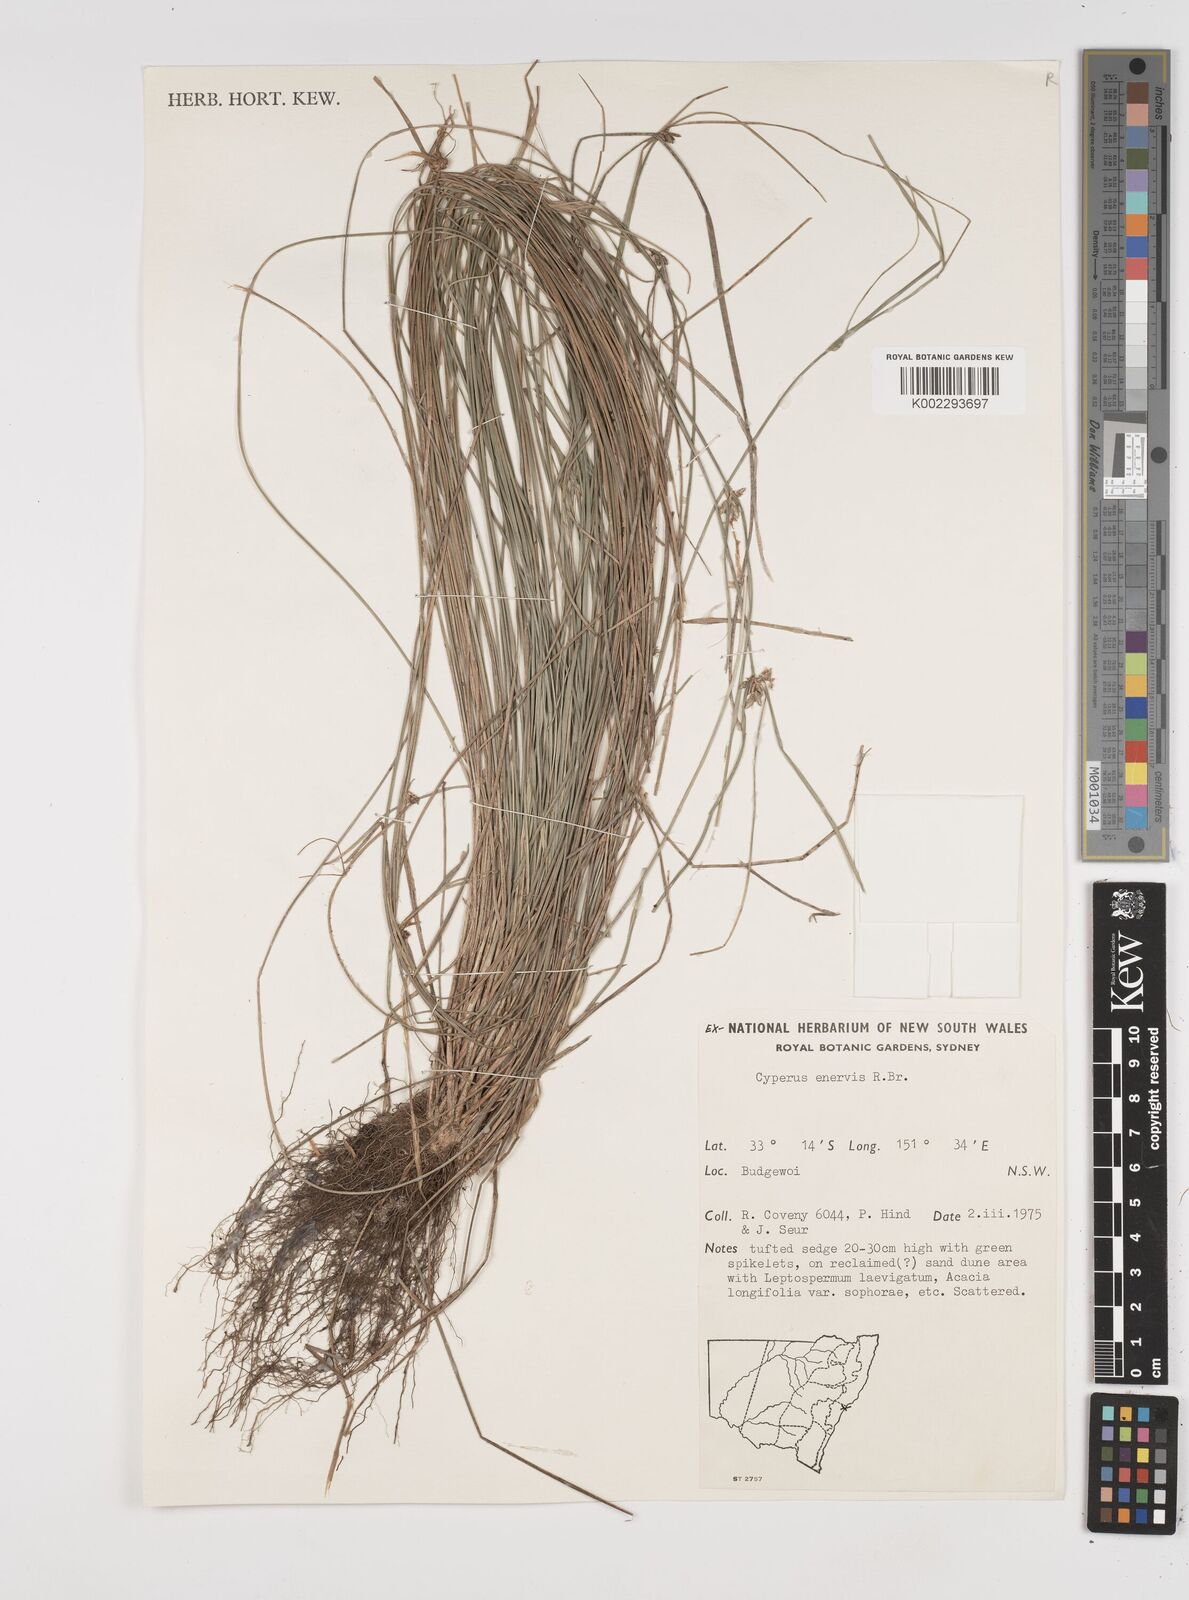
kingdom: Plantae
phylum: Tracheophyta
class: Liliopsida
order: Poales
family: Cyperaceae
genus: Cyperus
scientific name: Cyperus enervis
